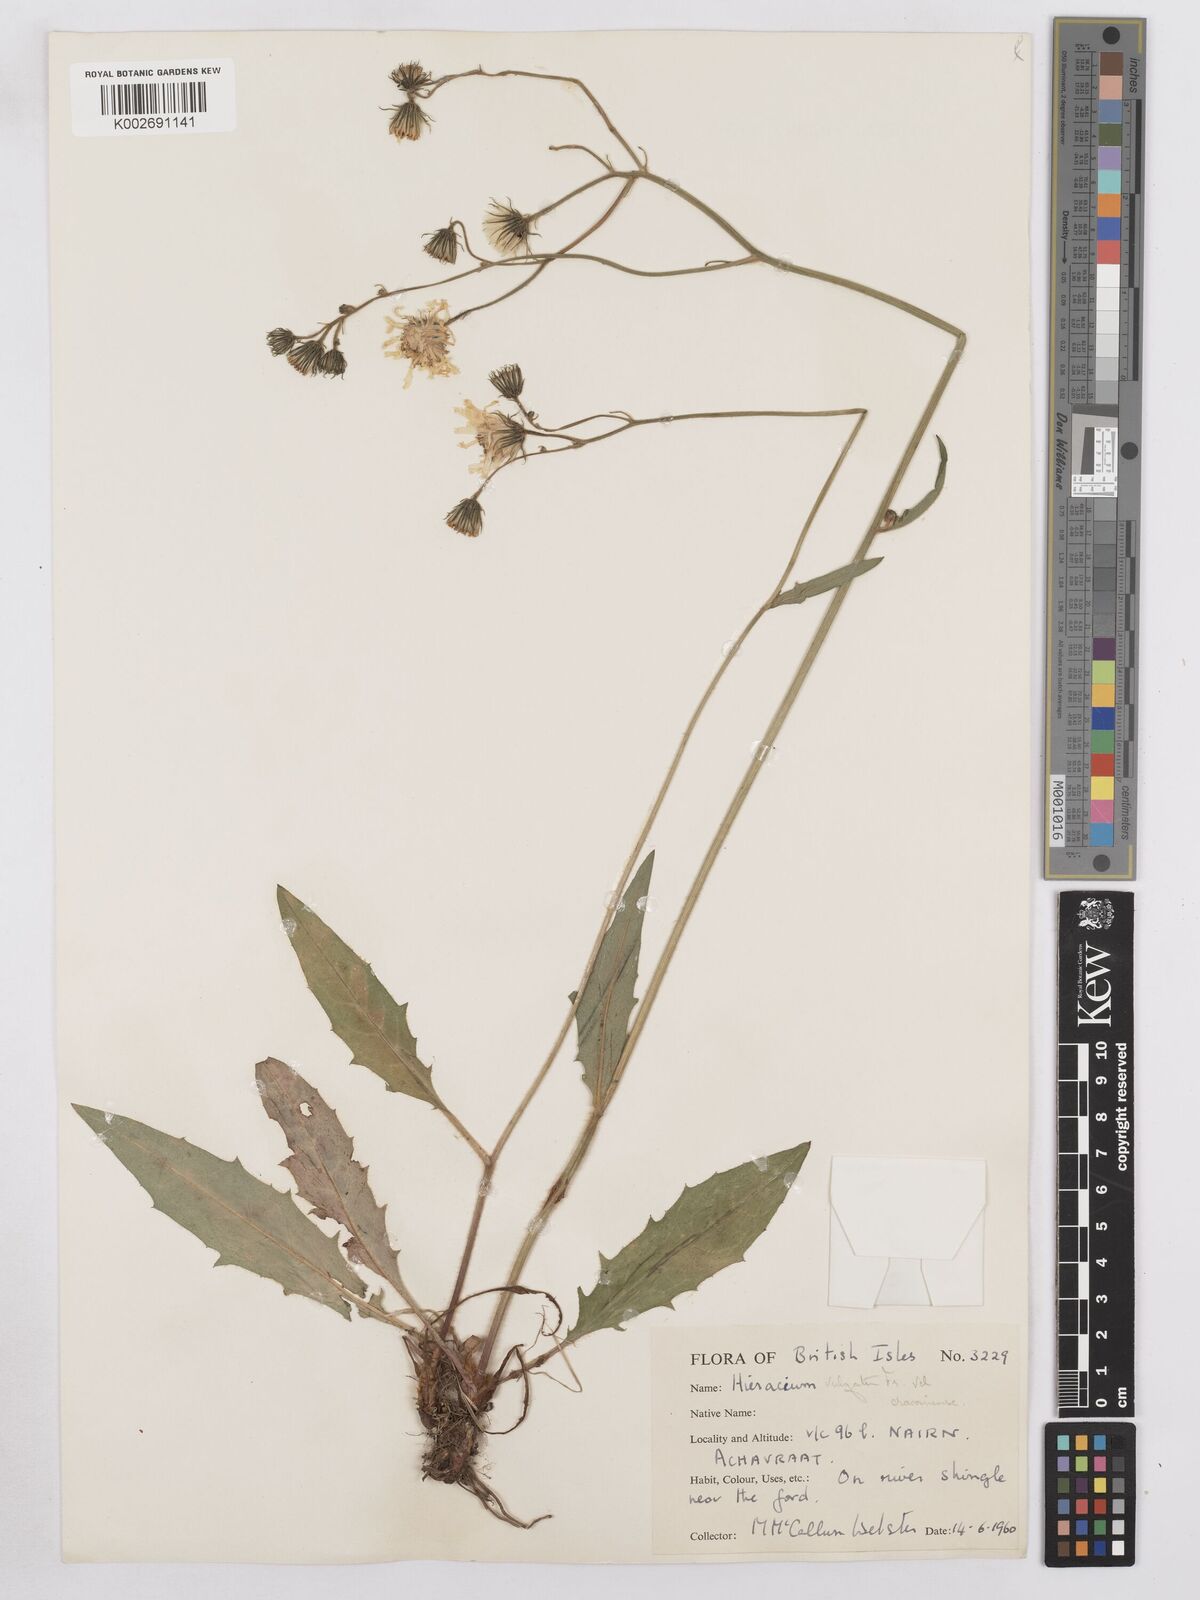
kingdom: Plantae
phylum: Tracheophyta
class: Magnoliopsida
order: Asterales
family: Asteraceae
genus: Hieracium
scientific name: Hieracium lachenalii
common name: Common hawkweed
